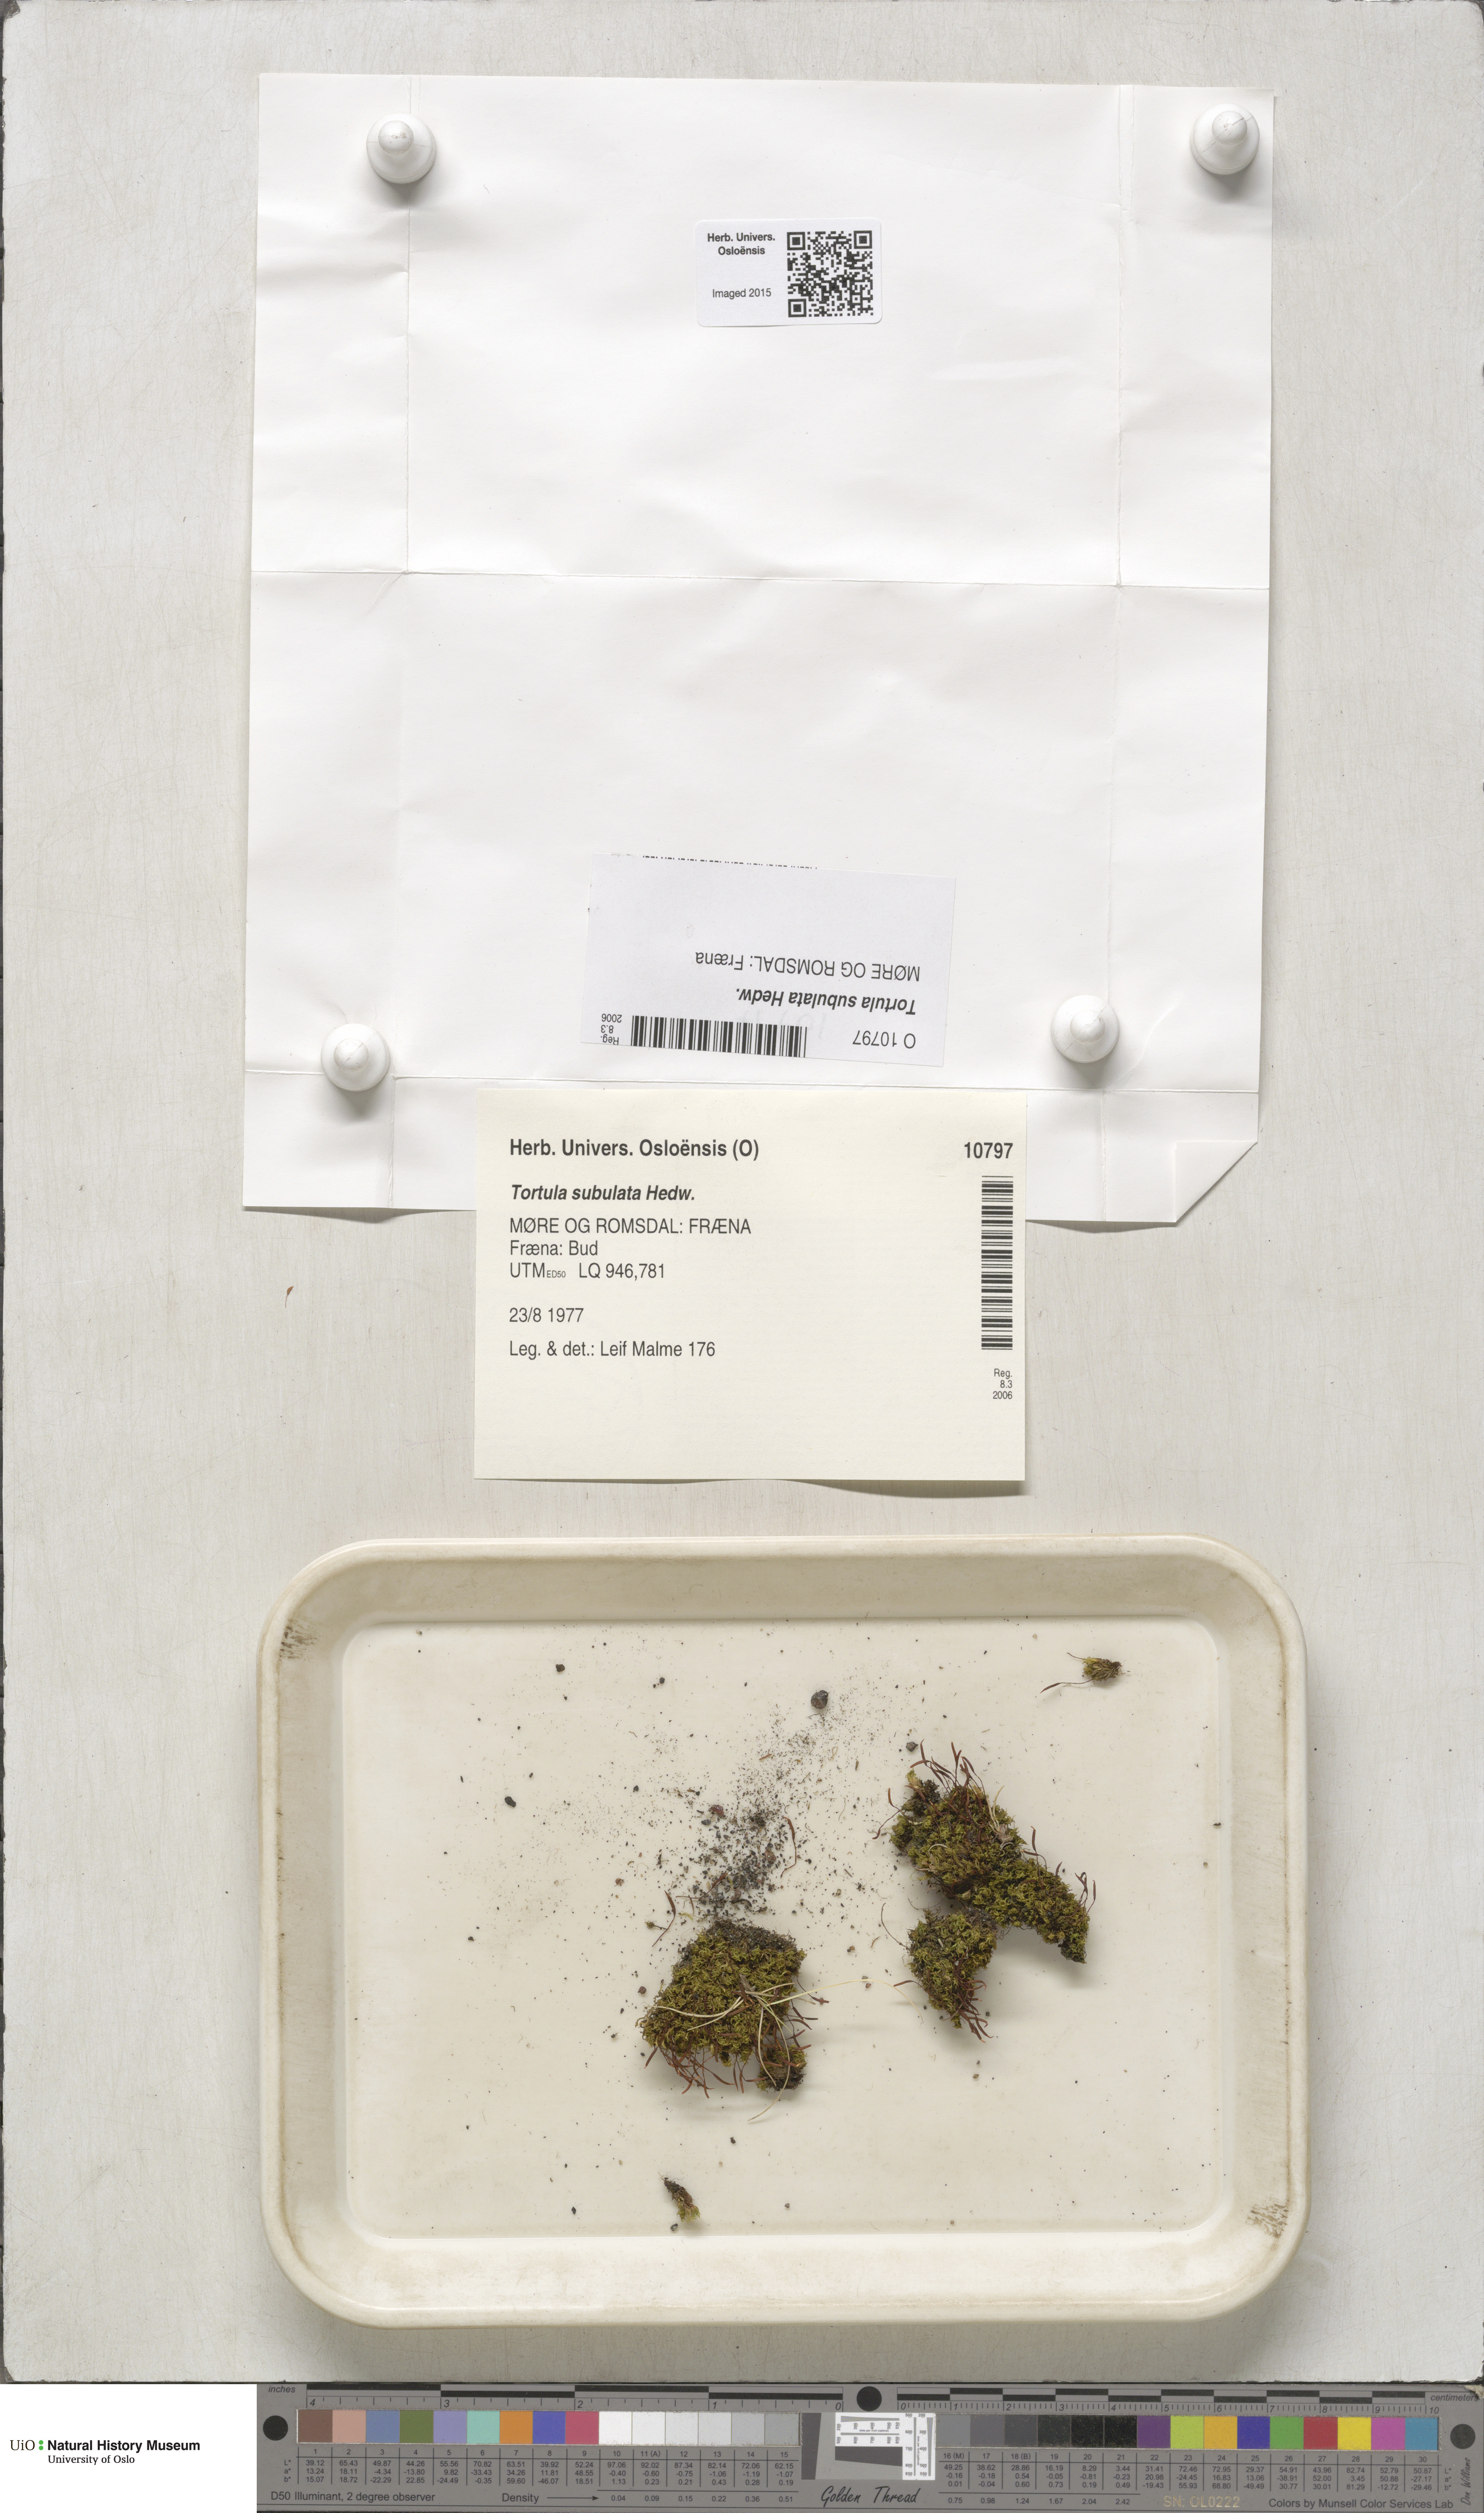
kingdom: Plantae
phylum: Bryophyta
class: Bryopsida
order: Pottiales
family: Pottiaceae
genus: Tortula
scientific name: Tortula subulata
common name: Upright screw-moss
